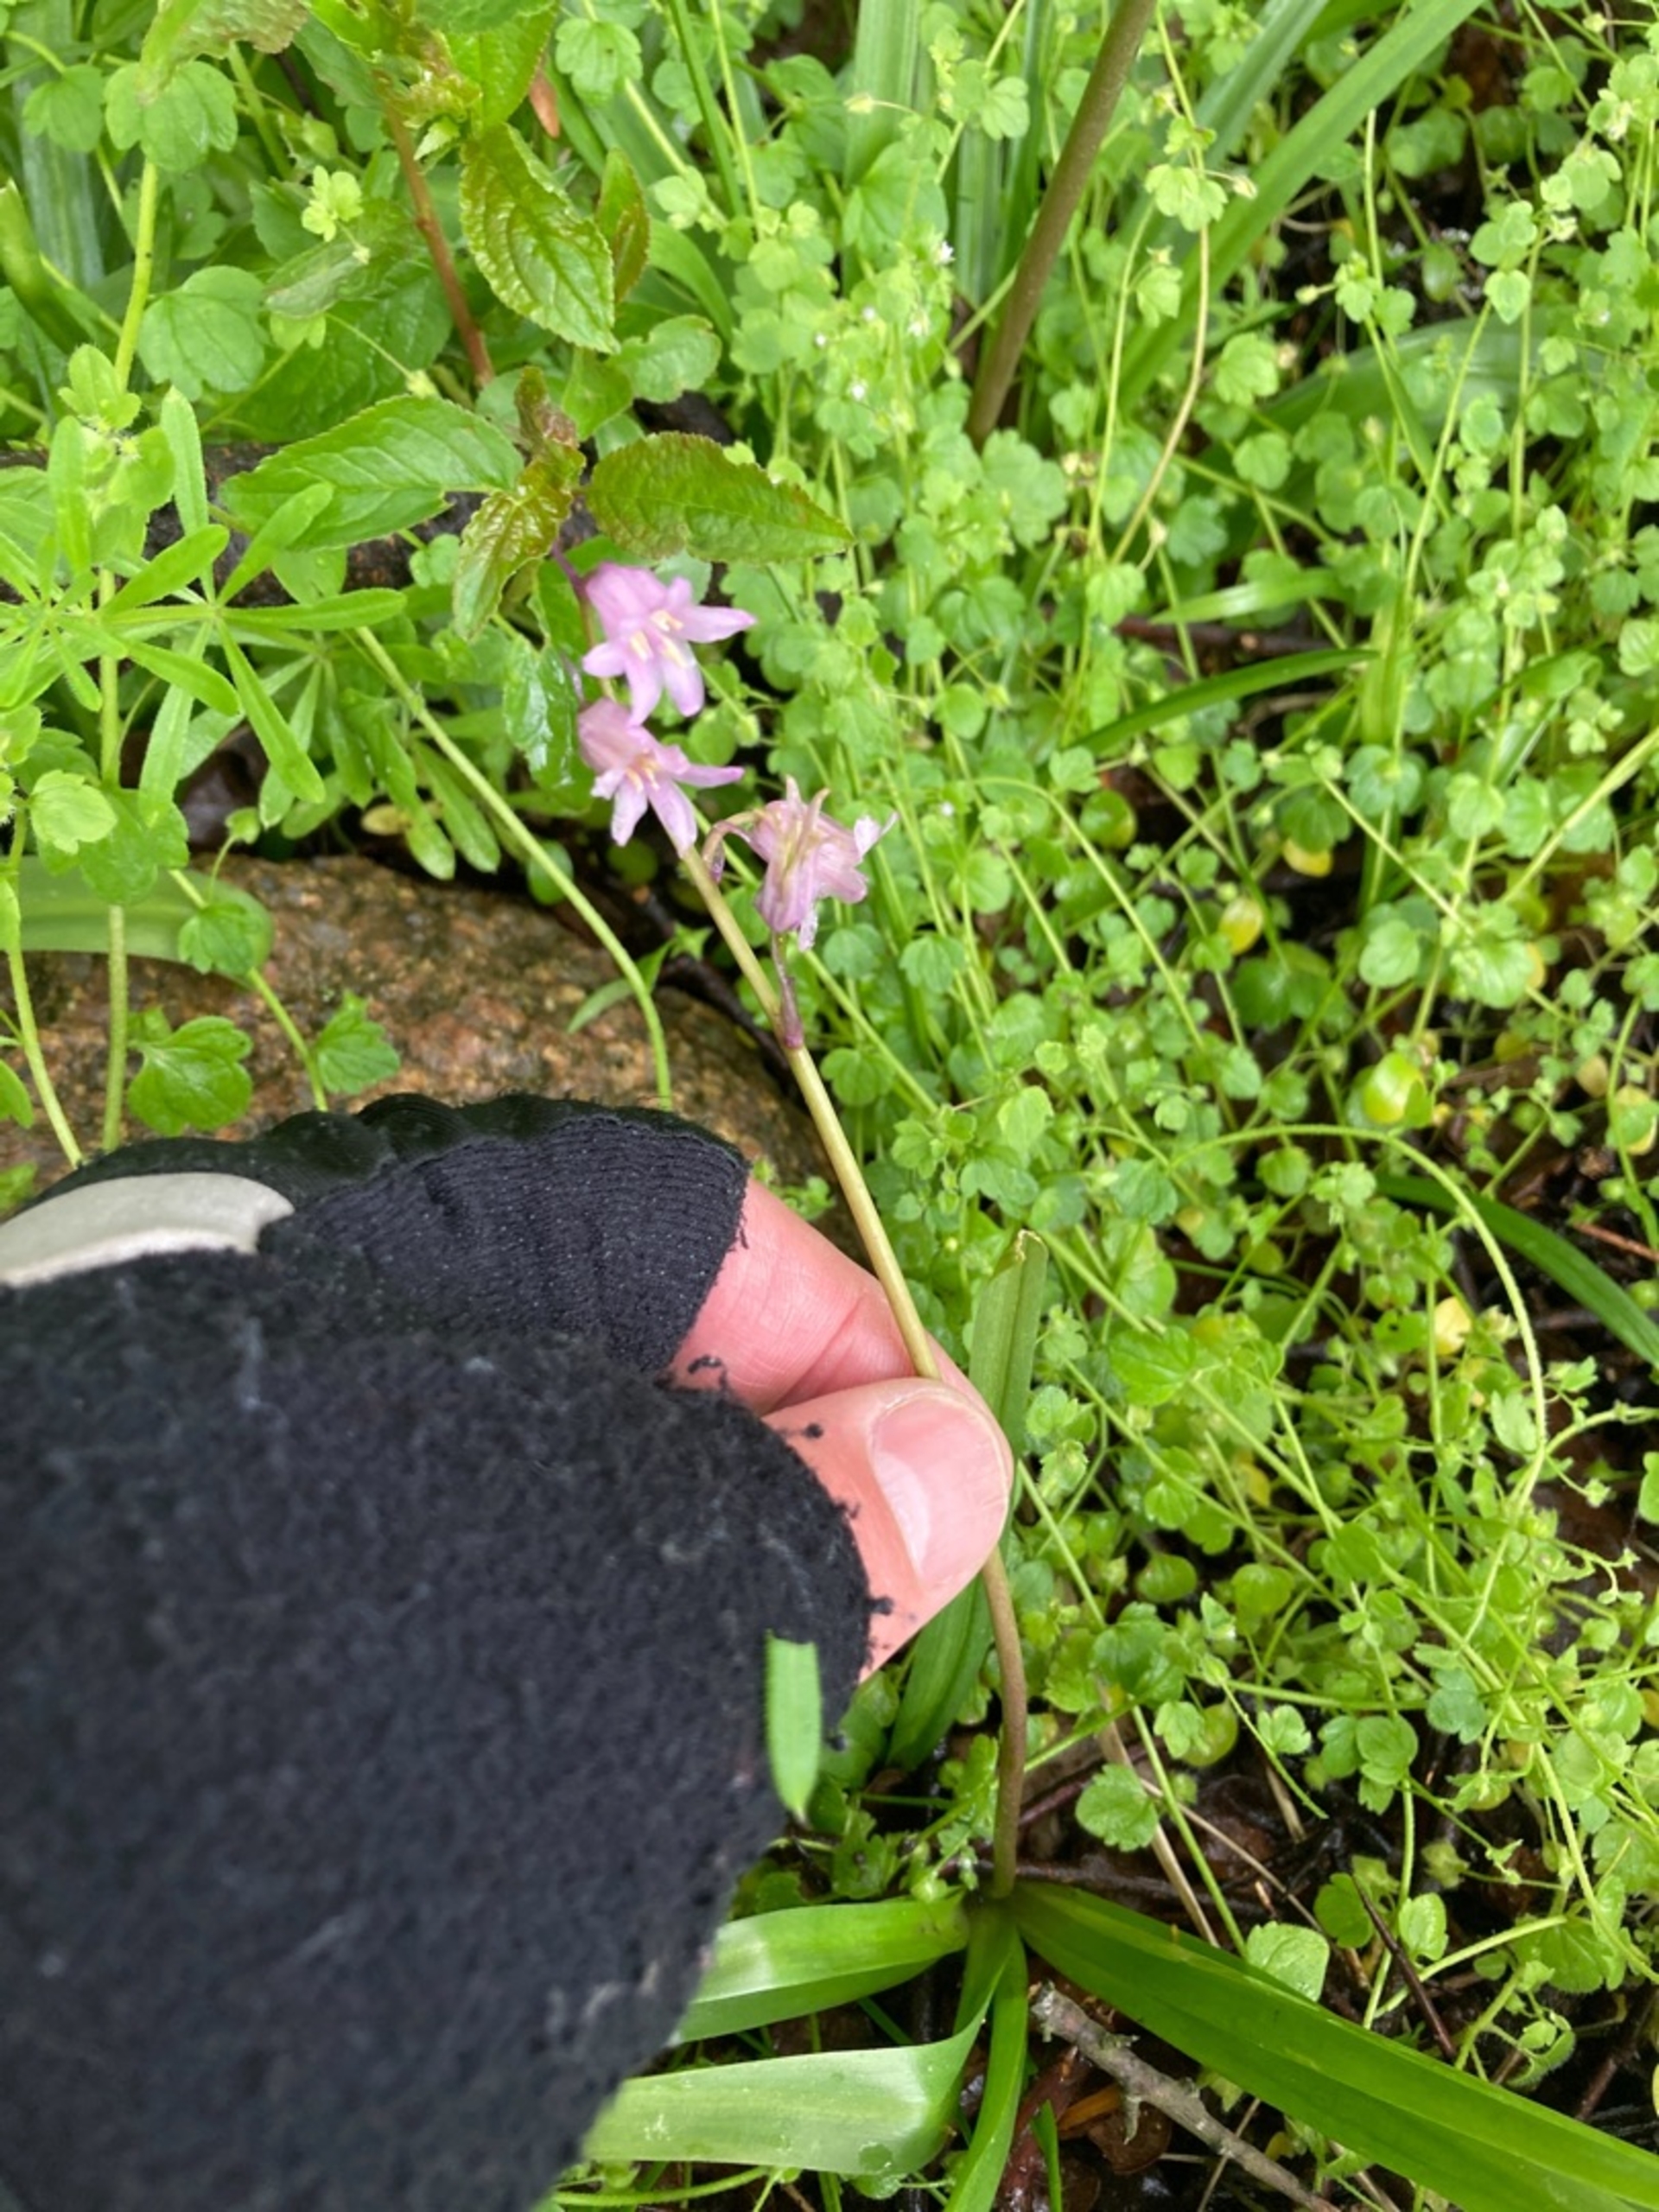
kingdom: Plantae
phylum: Tracheophyta
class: Liliopsida
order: Asparagales
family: Asparagaceae
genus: Hyacinthoides
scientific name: Hyacinthoides massartiana
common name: Hybrid-klokkeskilla
